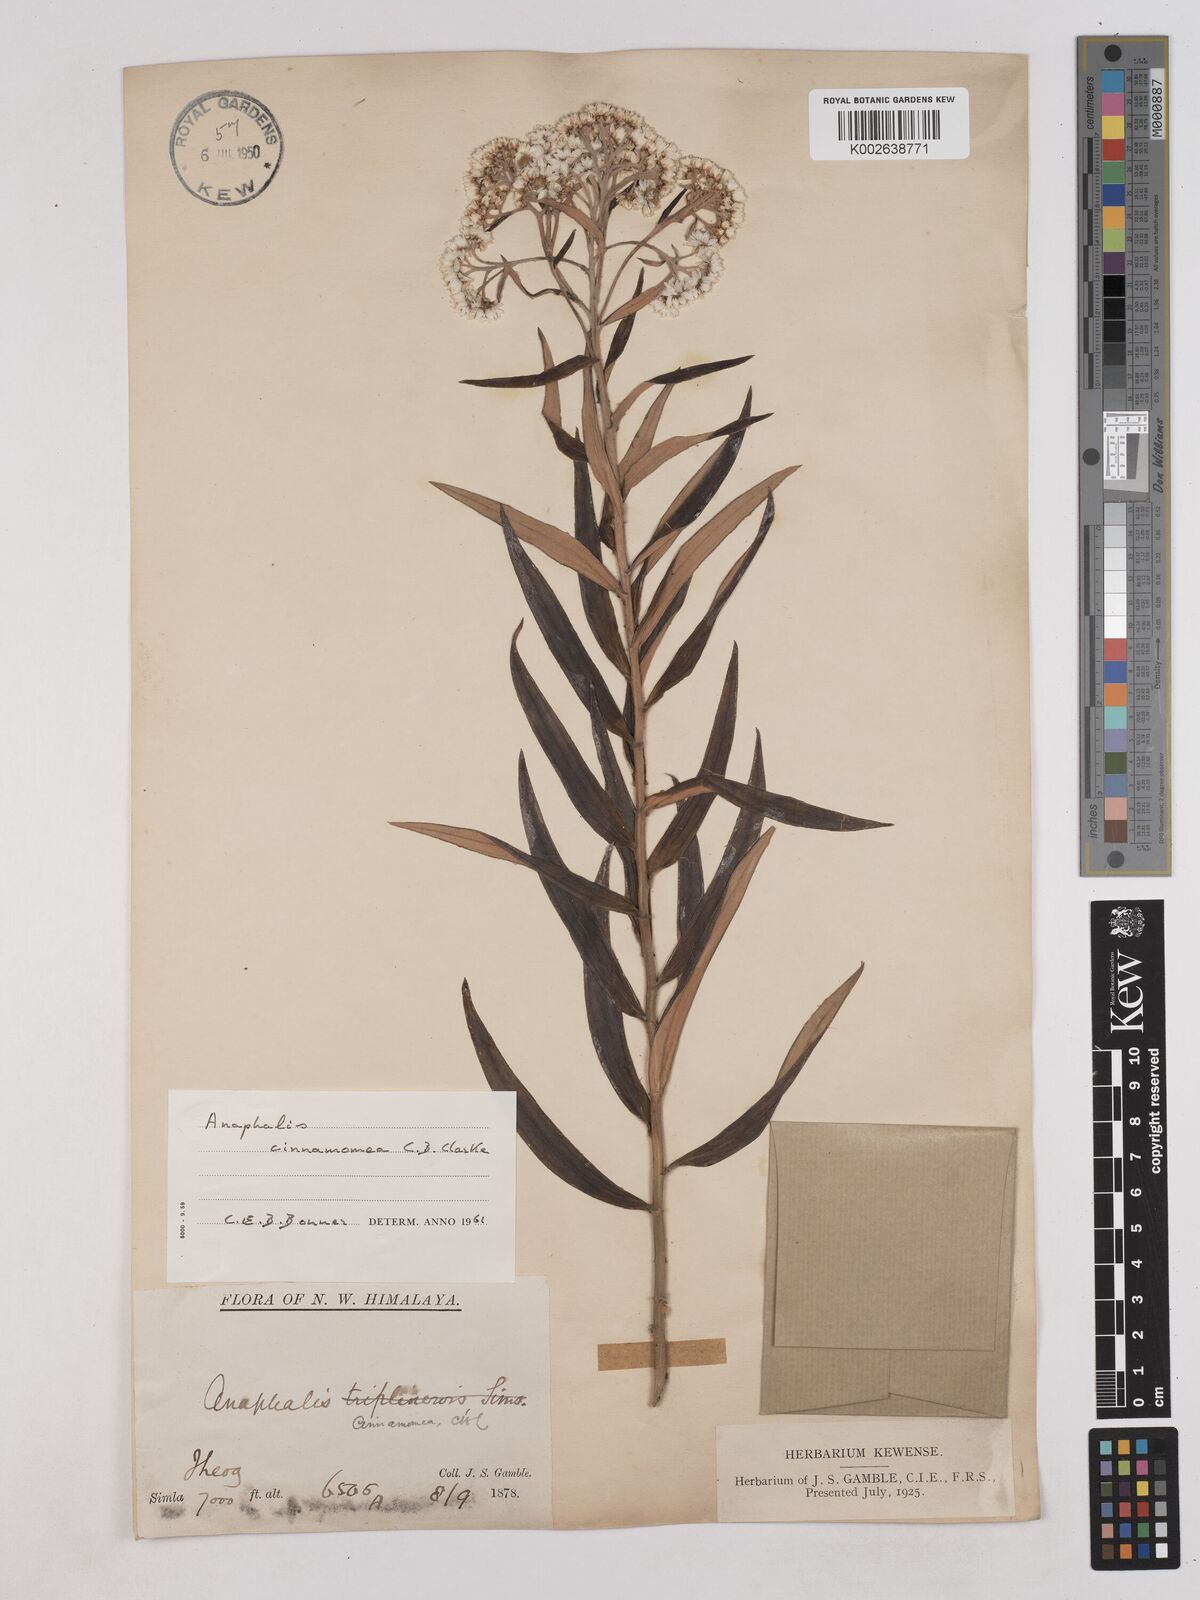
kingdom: Plantae
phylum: Tracheophyta
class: Magnoliopsida
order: Asterales
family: Asteraceae
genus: Anaphalis
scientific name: Anaphalis marcescens
